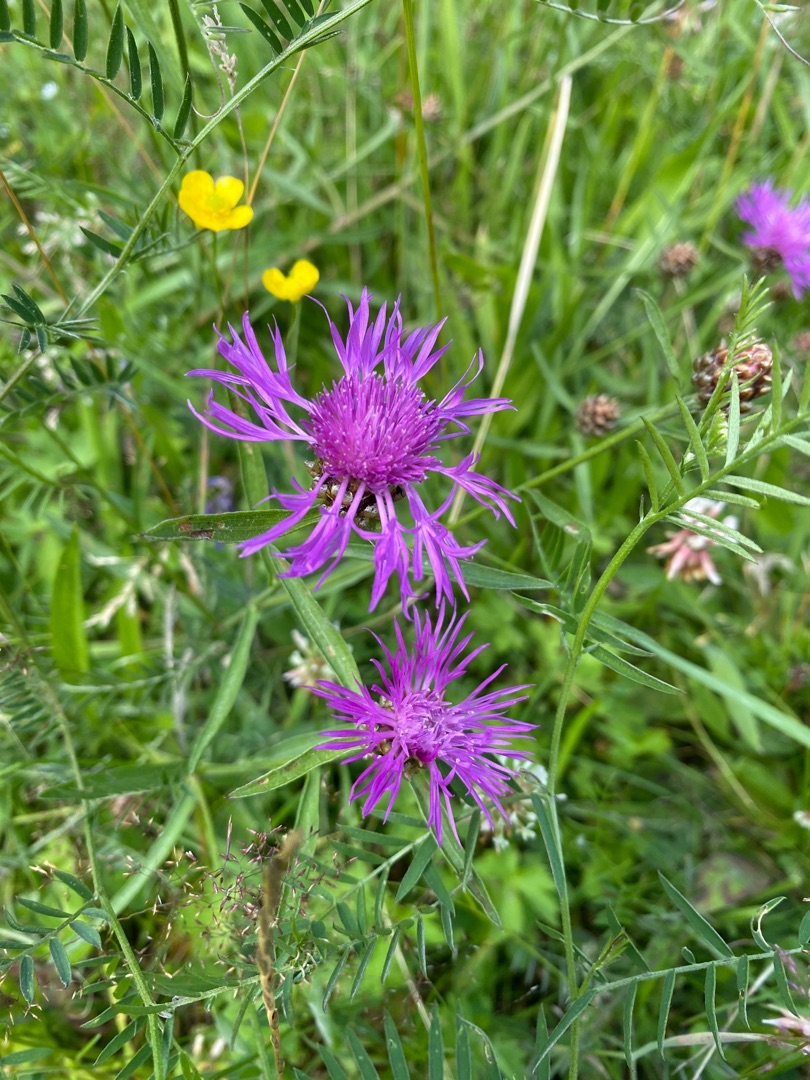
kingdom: Plantae
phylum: Tracheophyta
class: Magnoliopsida
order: Asterales
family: Asteraceae
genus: Centaurea
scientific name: Centaurea jacea
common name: Almindelig knopurt
